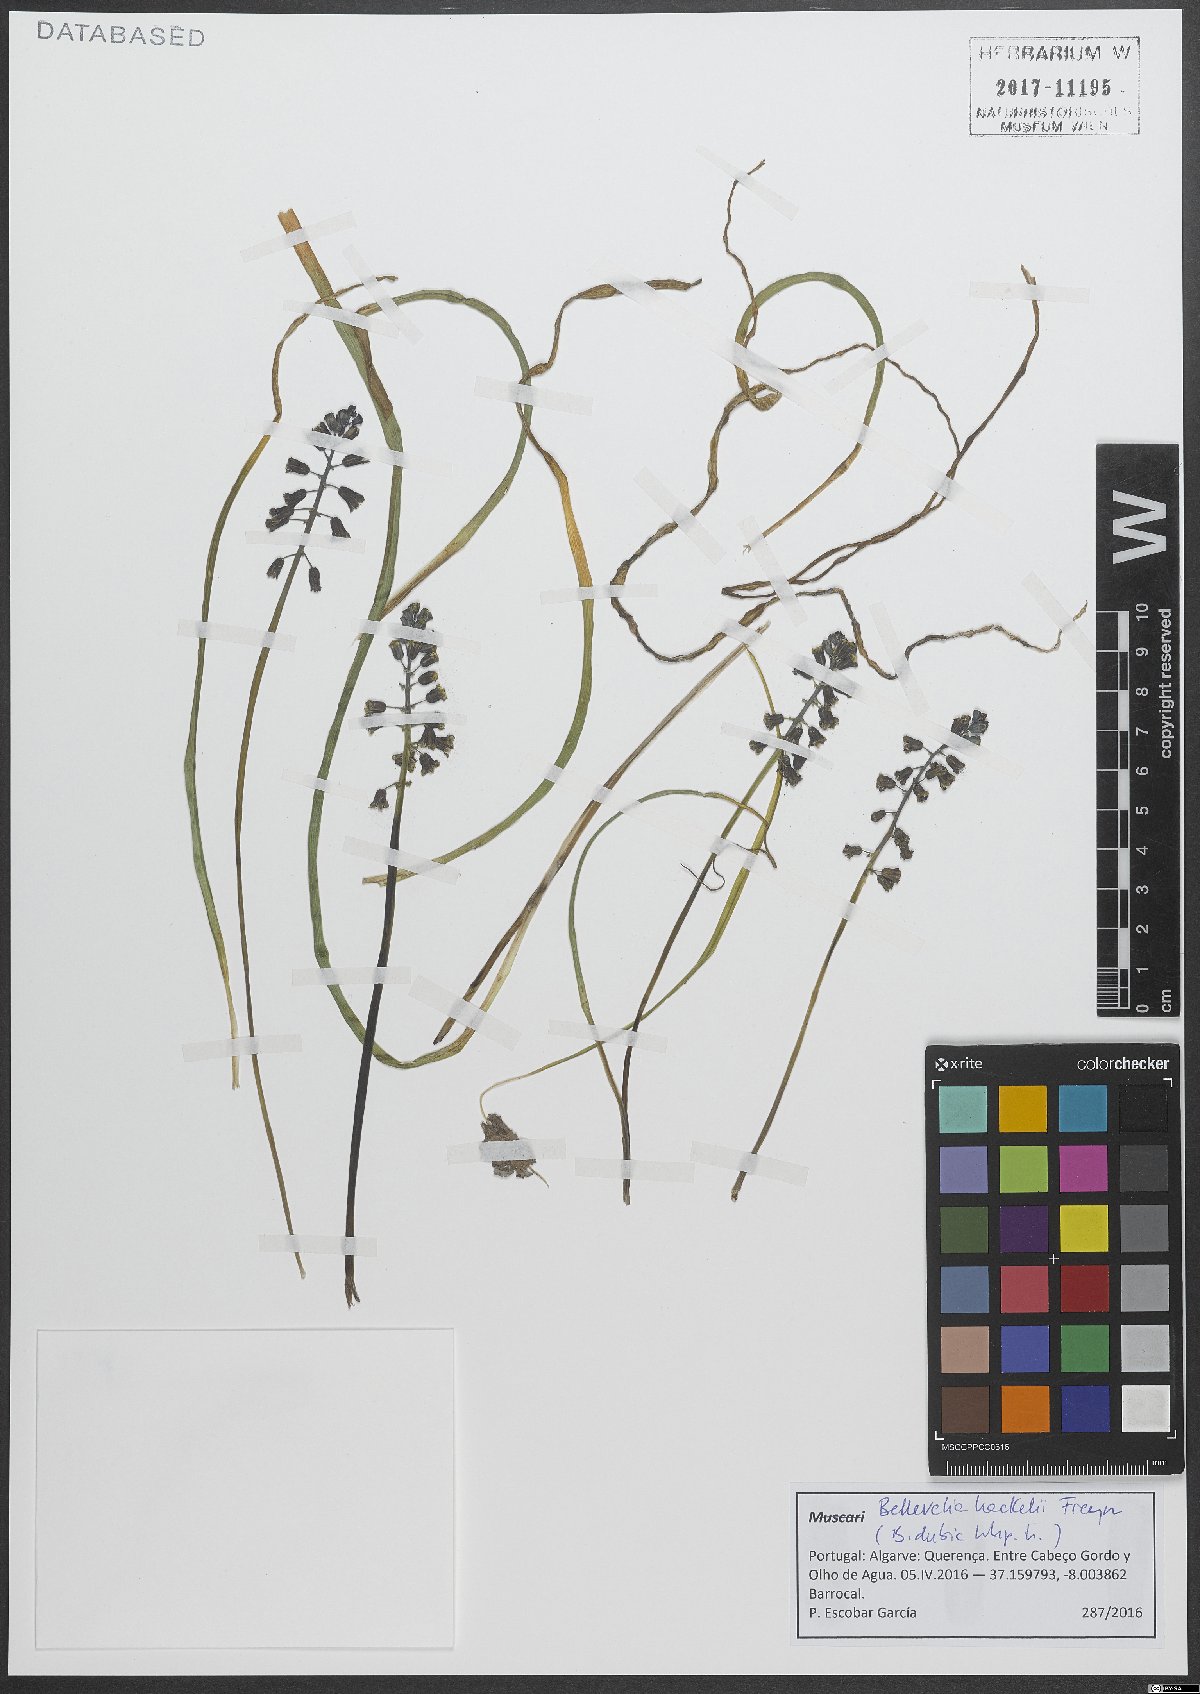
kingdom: Plantae
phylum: Tracheophyta
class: Liliopsida
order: Asparagales
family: Asparagaceae
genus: Bellevalia
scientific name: Bellevalia dubia
